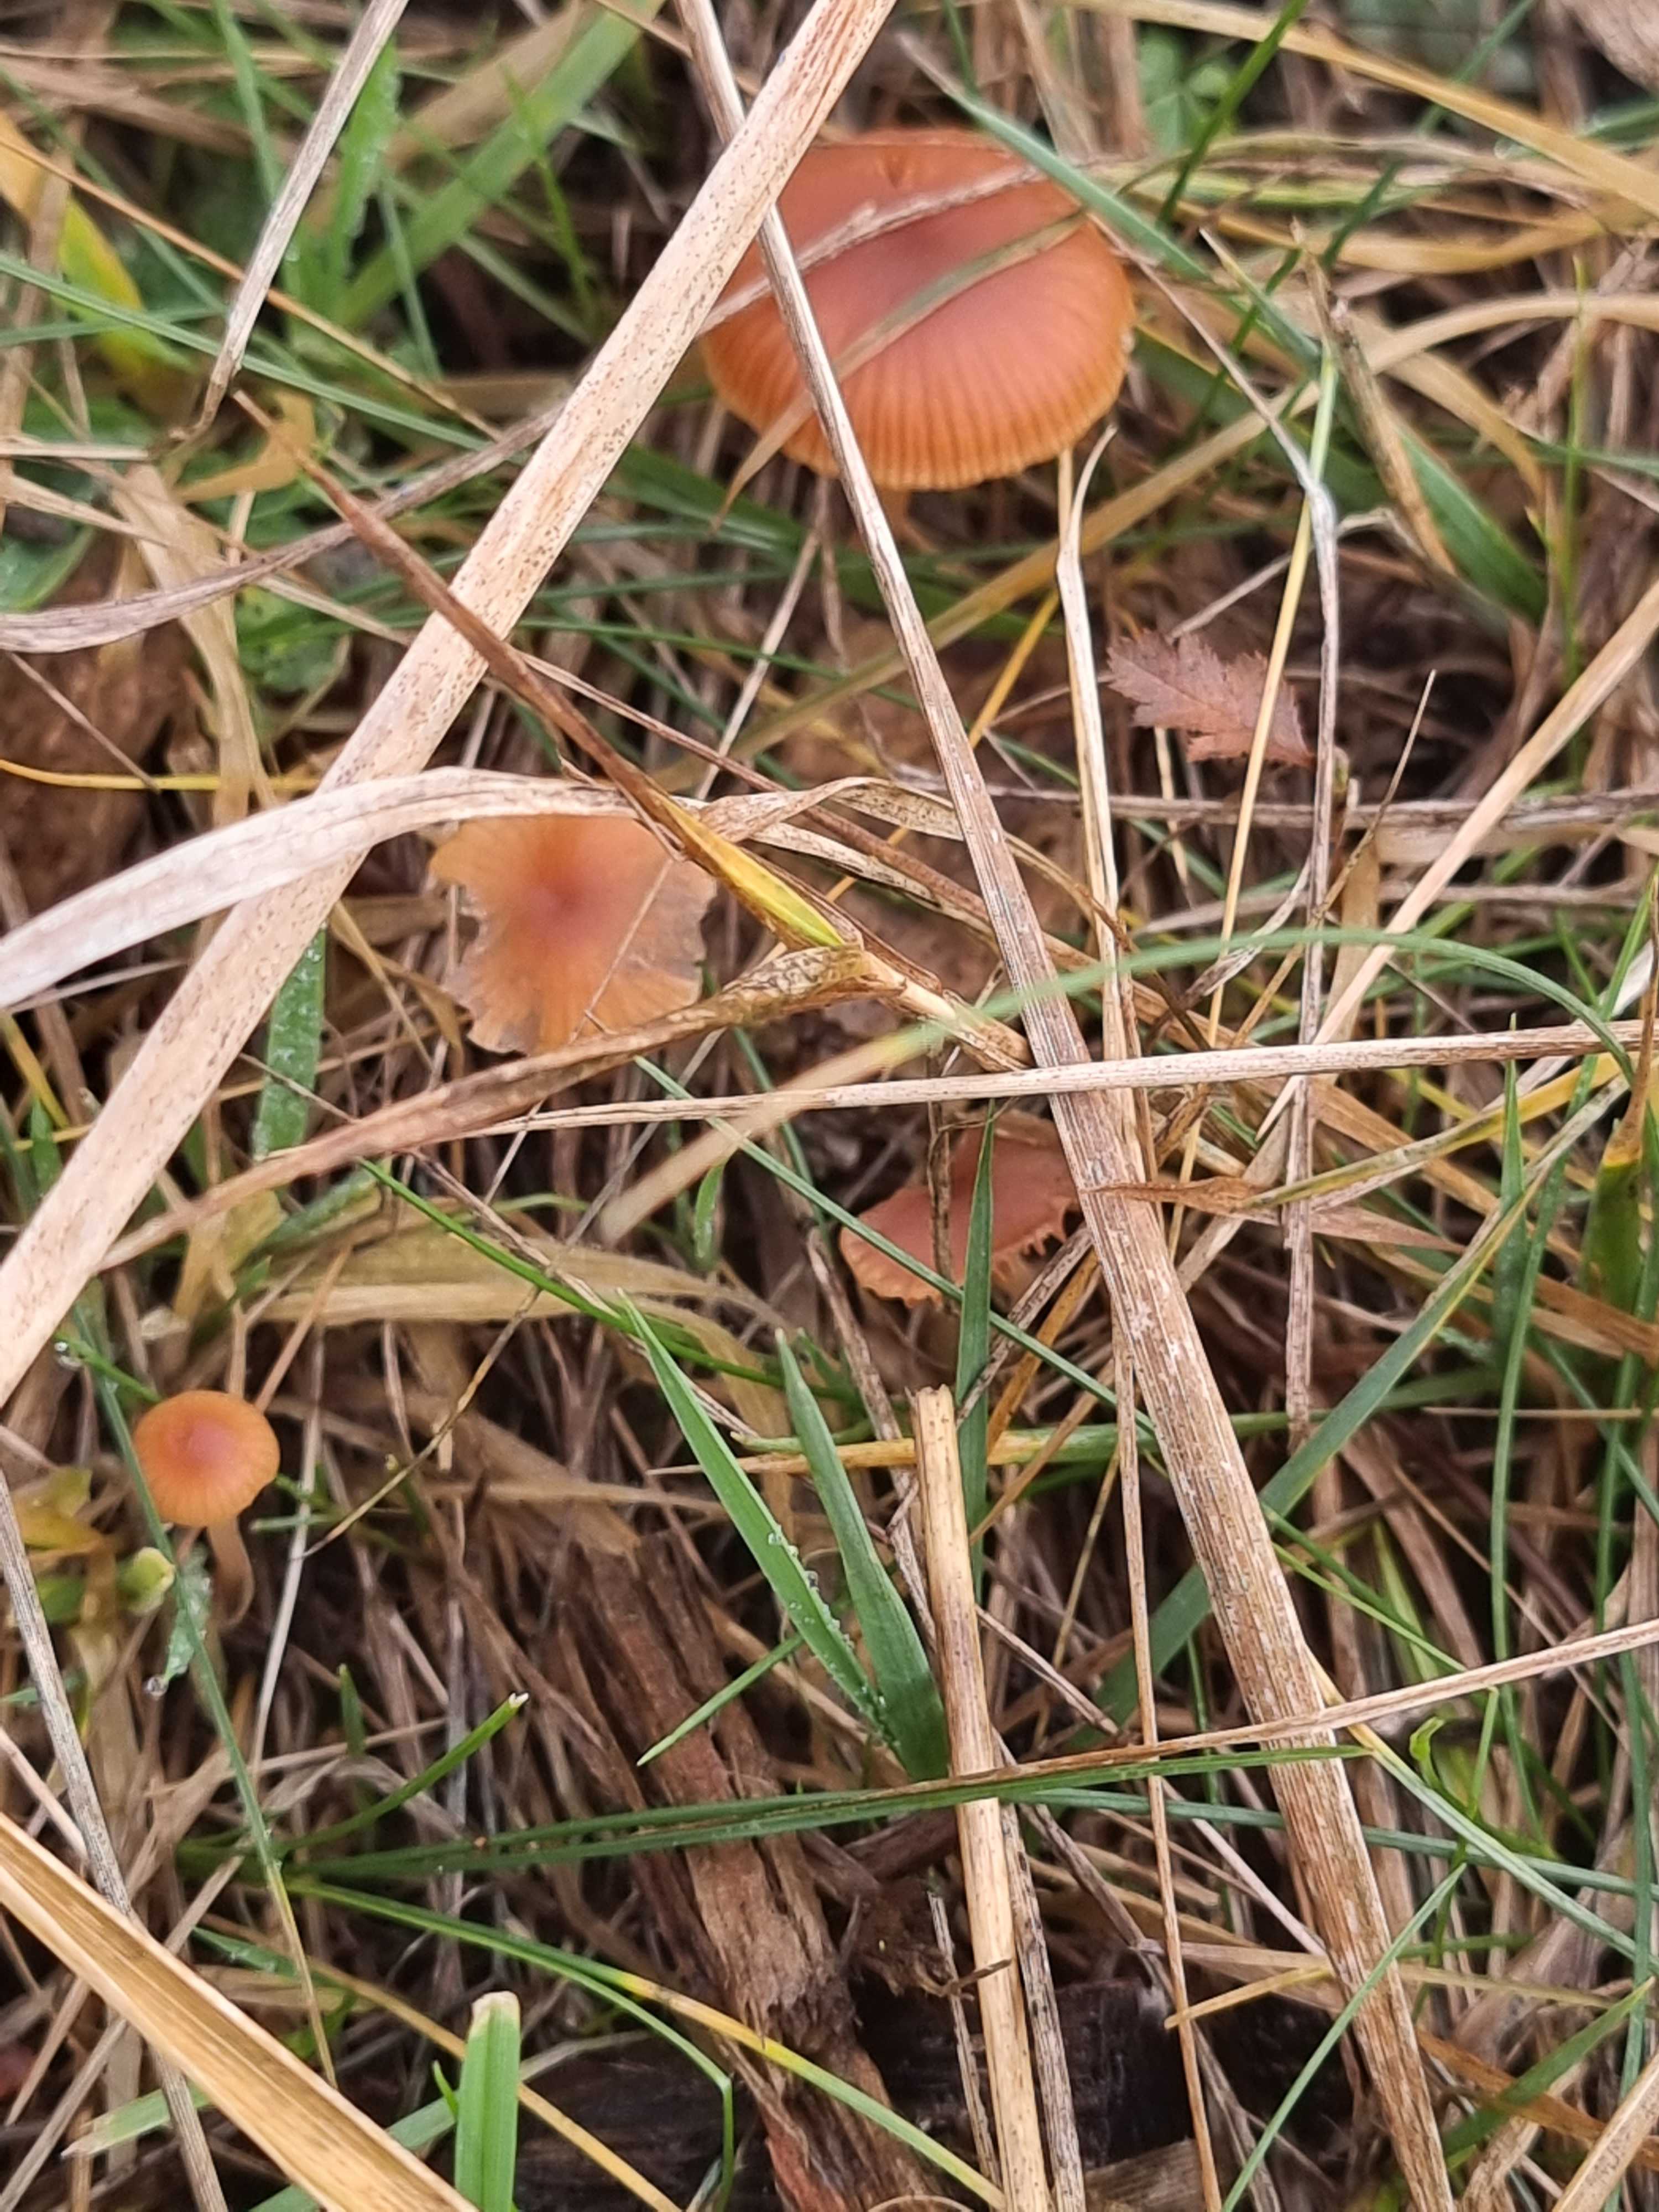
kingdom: Fungi
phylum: Basidiomycota
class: Agaricomycetes
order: Agaricales
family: Tubariaceae
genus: Tubaria
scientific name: Tubaria furfuracea
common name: kliddet fnughat
